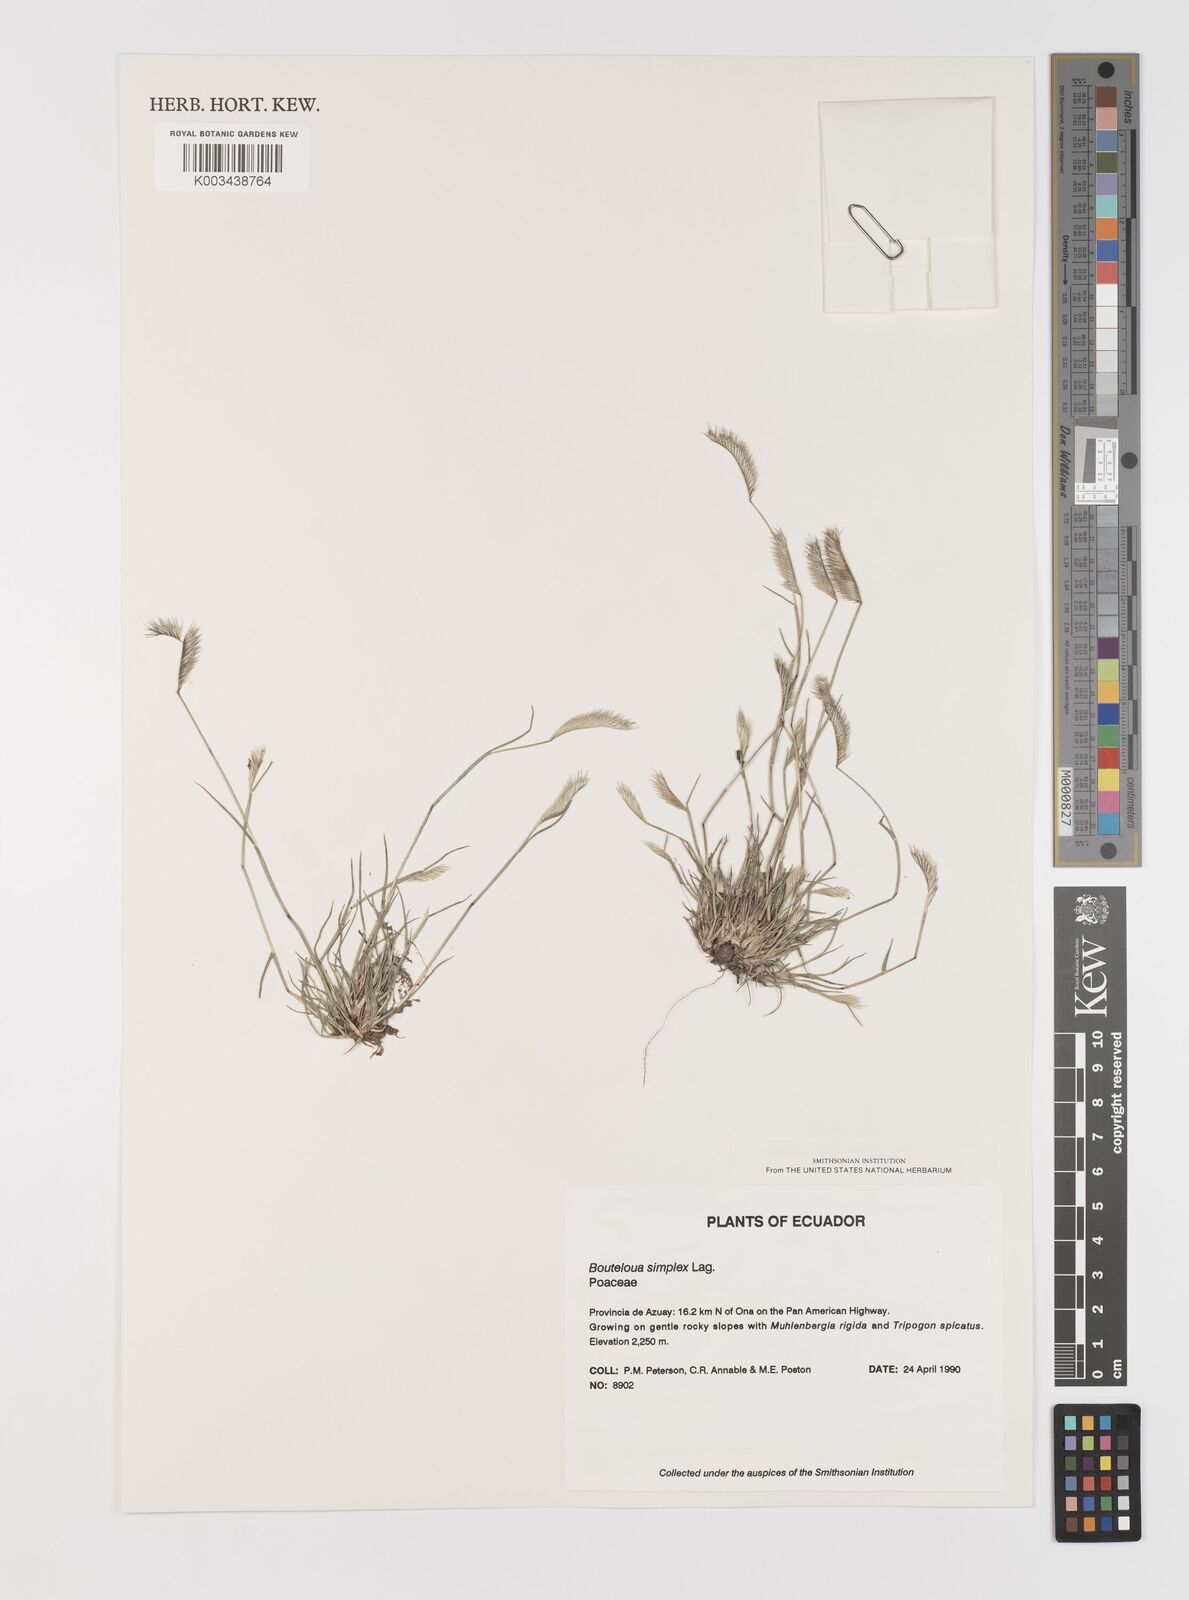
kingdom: Plantae
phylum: Tracheophyta
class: Liliopsida
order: Poales
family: Poaceae
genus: Bouteloua
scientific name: Bouteloua simplex
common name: Mat grama
